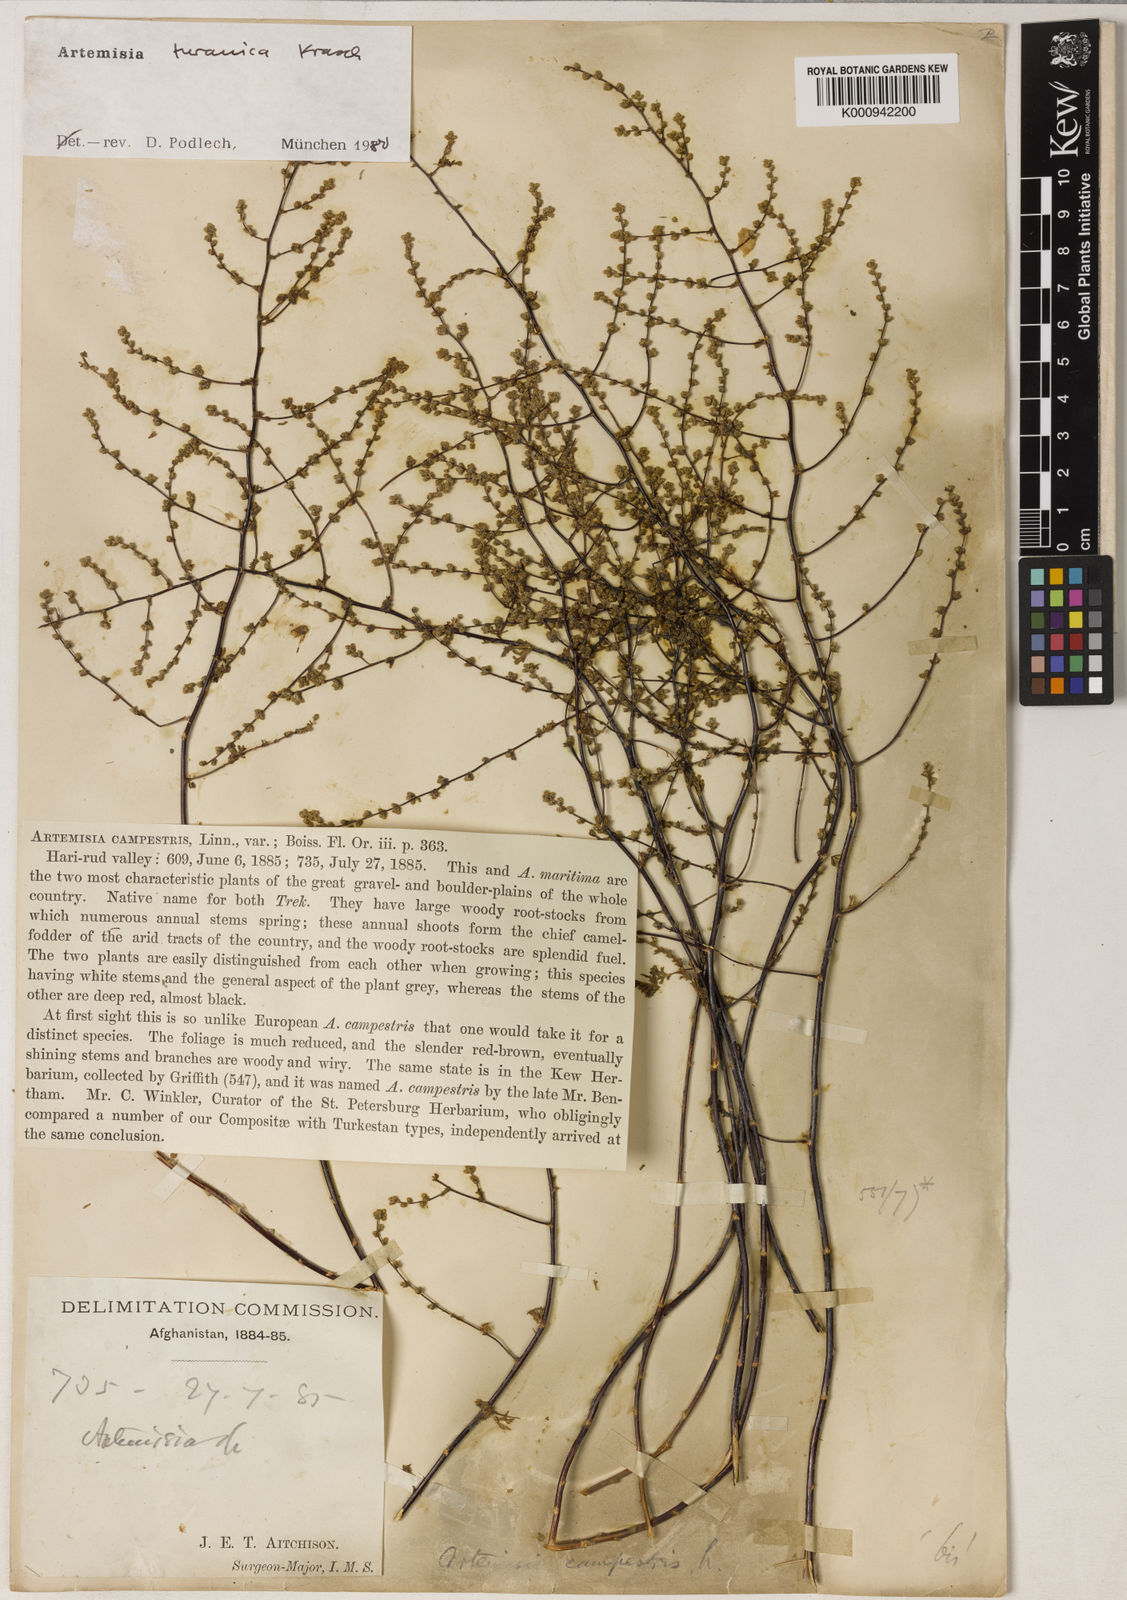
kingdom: Plantae
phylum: Tracheophyta
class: Magnoliopsida
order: Asterales
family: Asteraceae
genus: Artemisia
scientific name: Artemisia turanica
